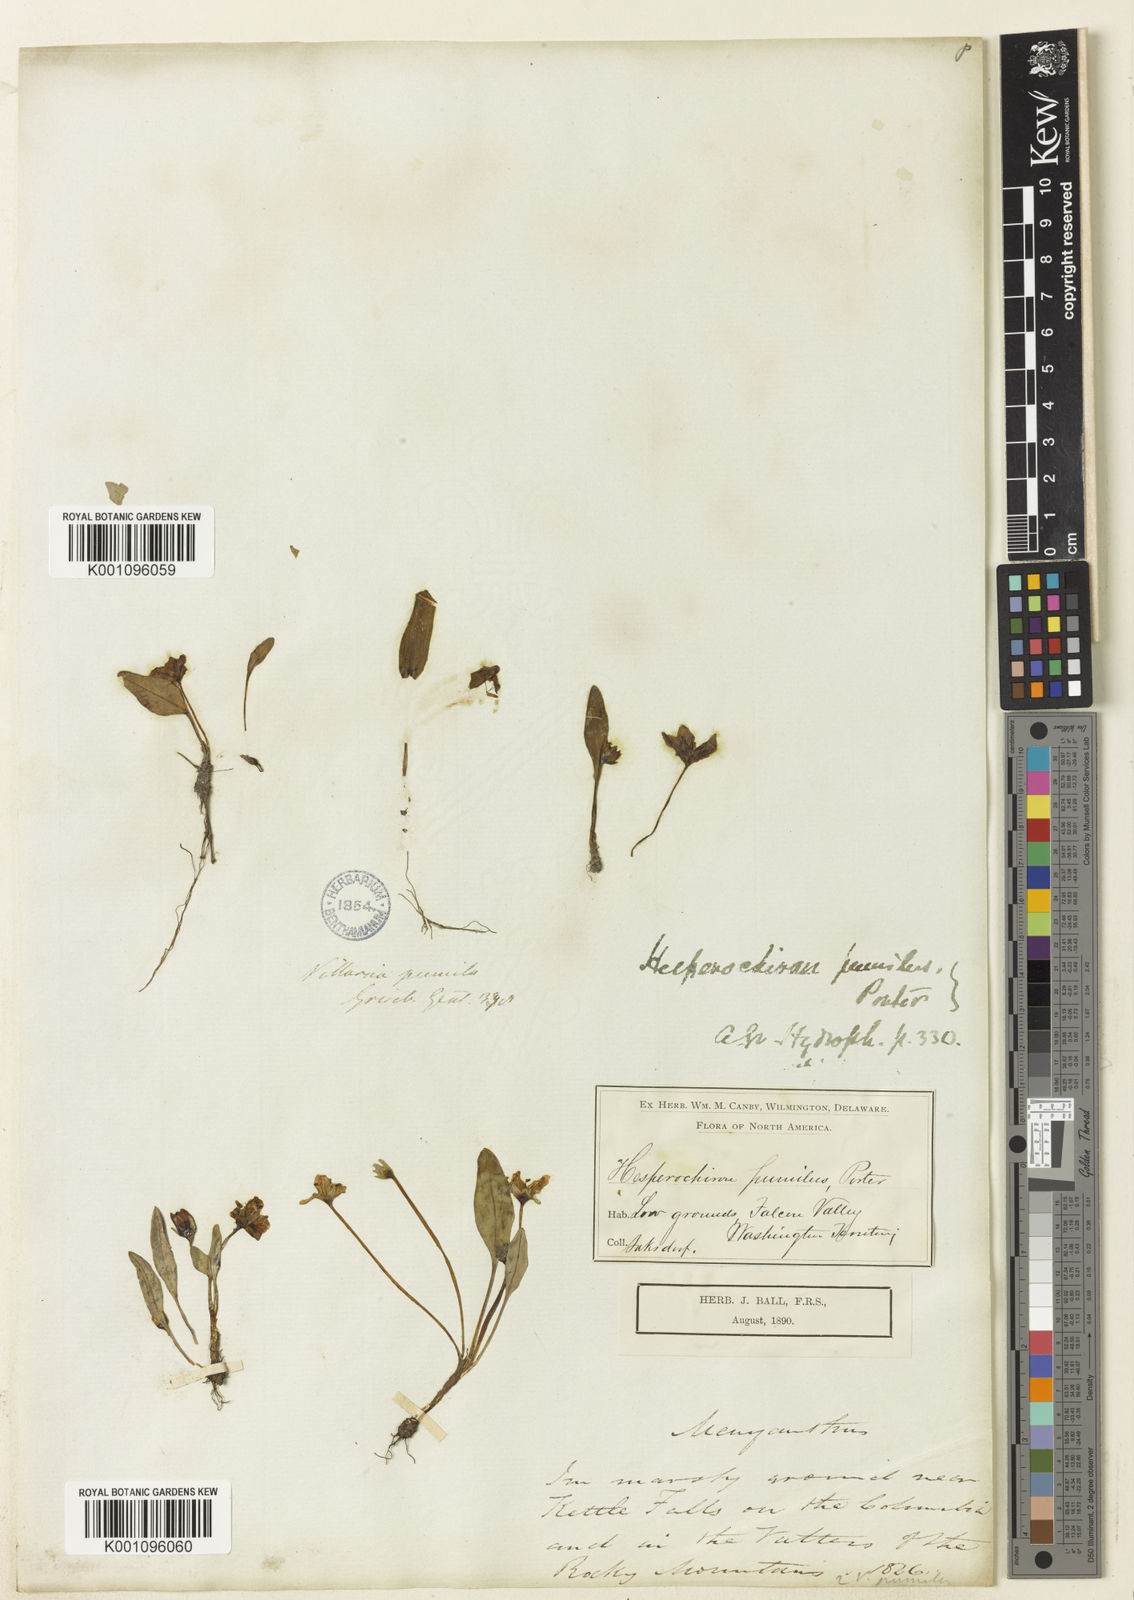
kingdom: Plantae
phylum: Tracheophyta
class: Magnoliopsida
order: Boraginales
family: Hydrophyllaceae
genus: Hesperochiron
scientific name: Hesperochiron pumilus
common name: Dwarf hesperochiron
